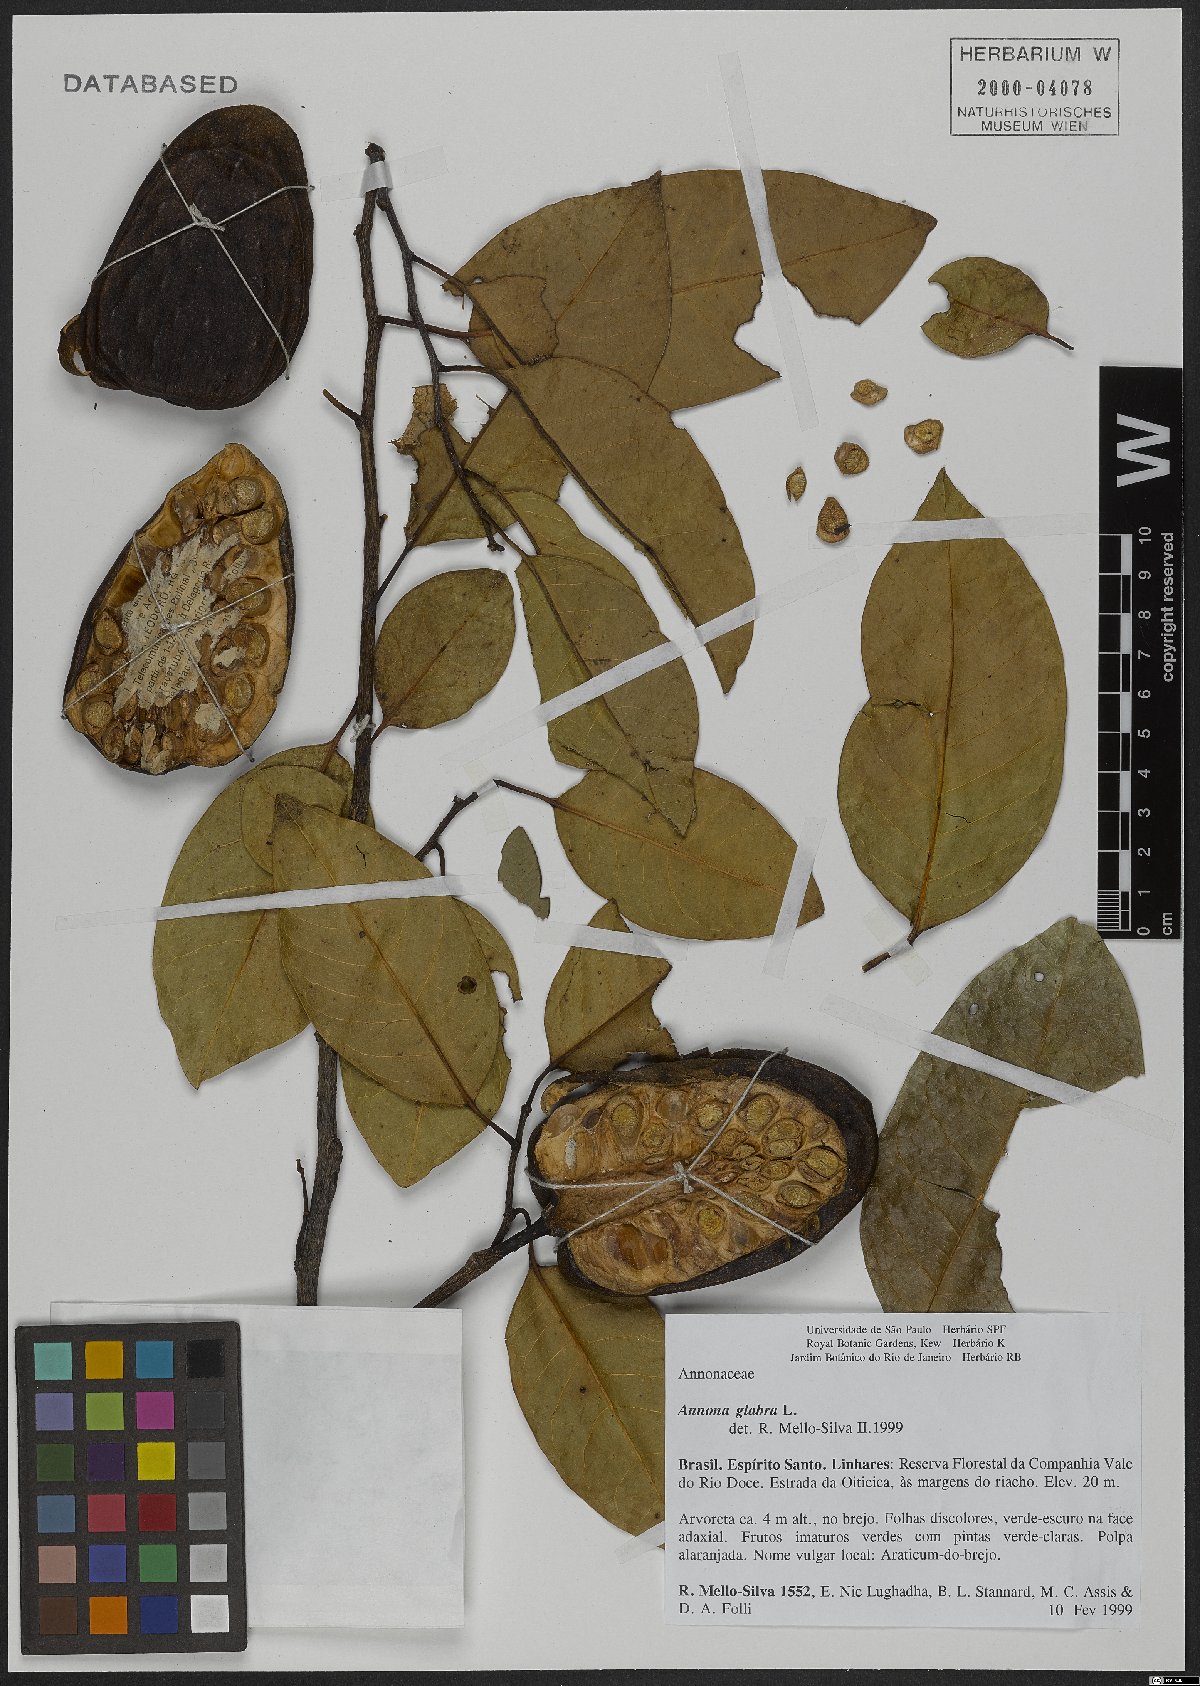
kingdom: Plantae
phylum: Tracheophyta
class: Magnoliopsida
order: Magnoliales
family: Annonaceae
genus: Annona
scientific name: Annona glabra
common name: Monkey apple
